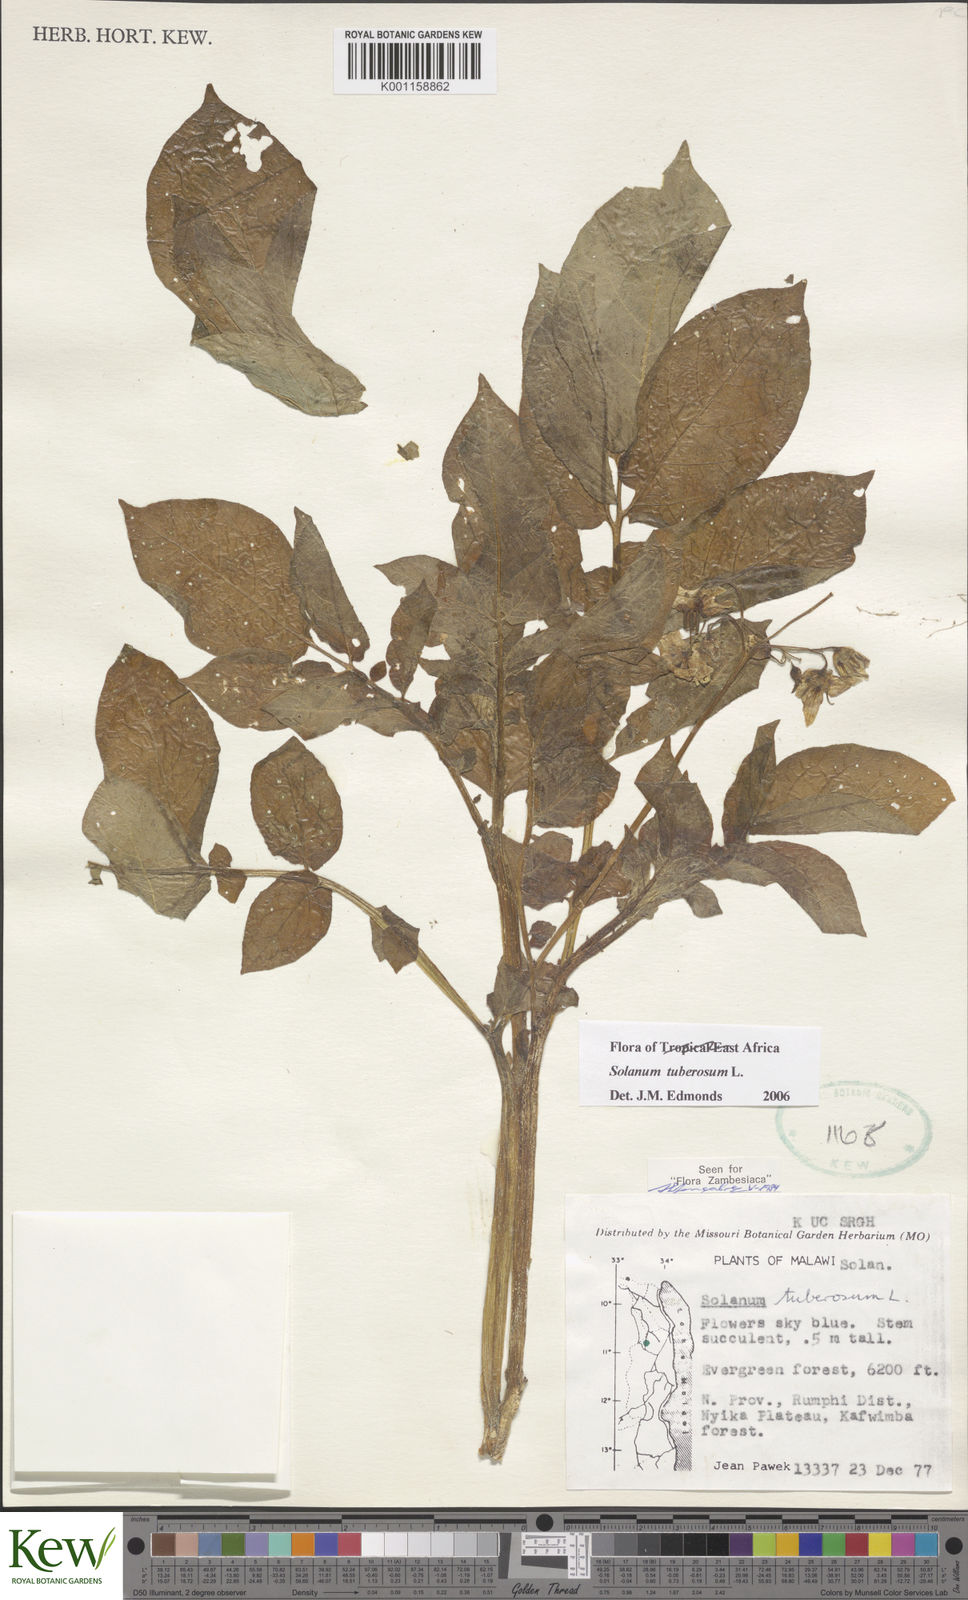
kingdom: Plantae
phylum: Tracheophyta
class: Magnoliopsida
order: Solanales
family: Solanaceae
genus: Solanum
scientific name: Solanum tuberosum
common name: Potato
